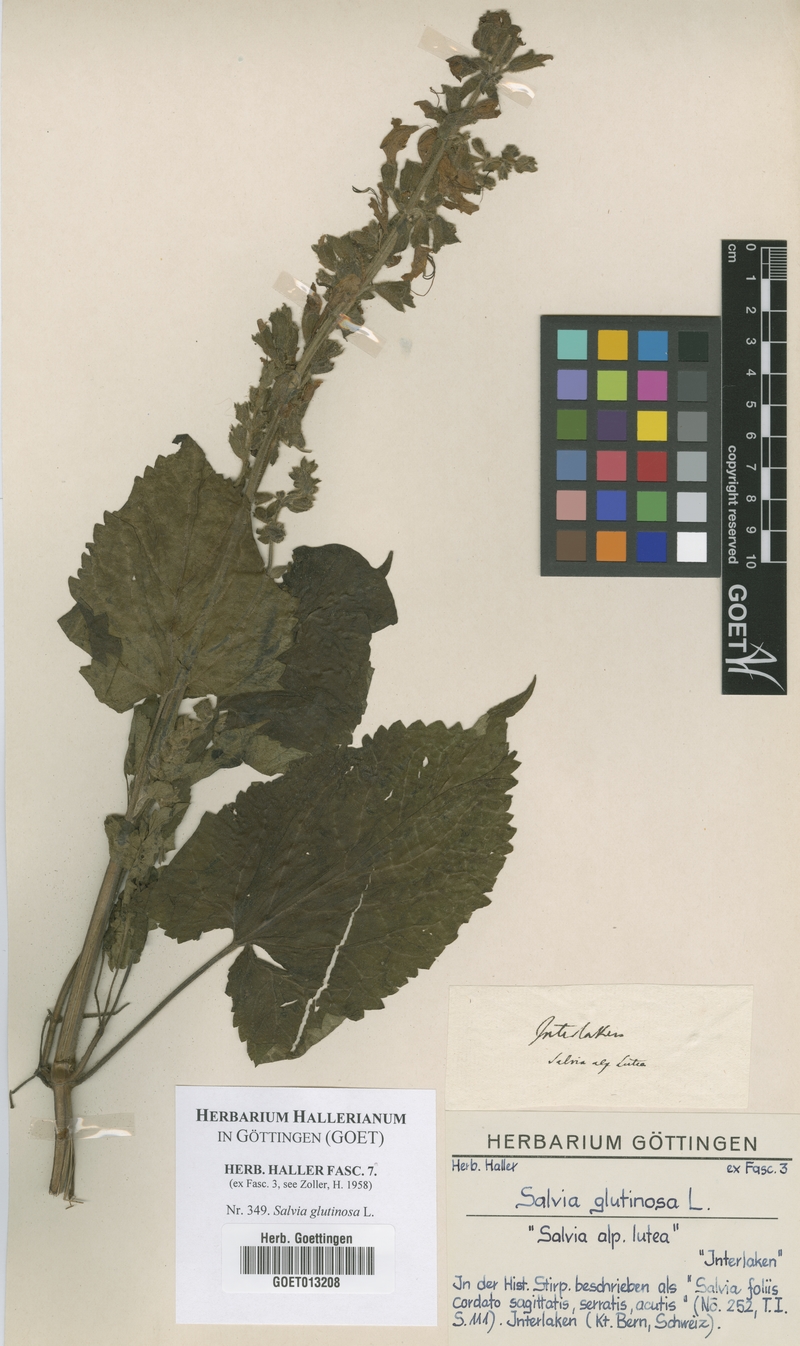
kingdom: Plantae
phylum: Tracheophyta
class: Magnoliopsida
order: Lamiales
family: Lamiaceae
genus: Salvia
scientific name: Salvia glutinosa
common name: Sticky clary
